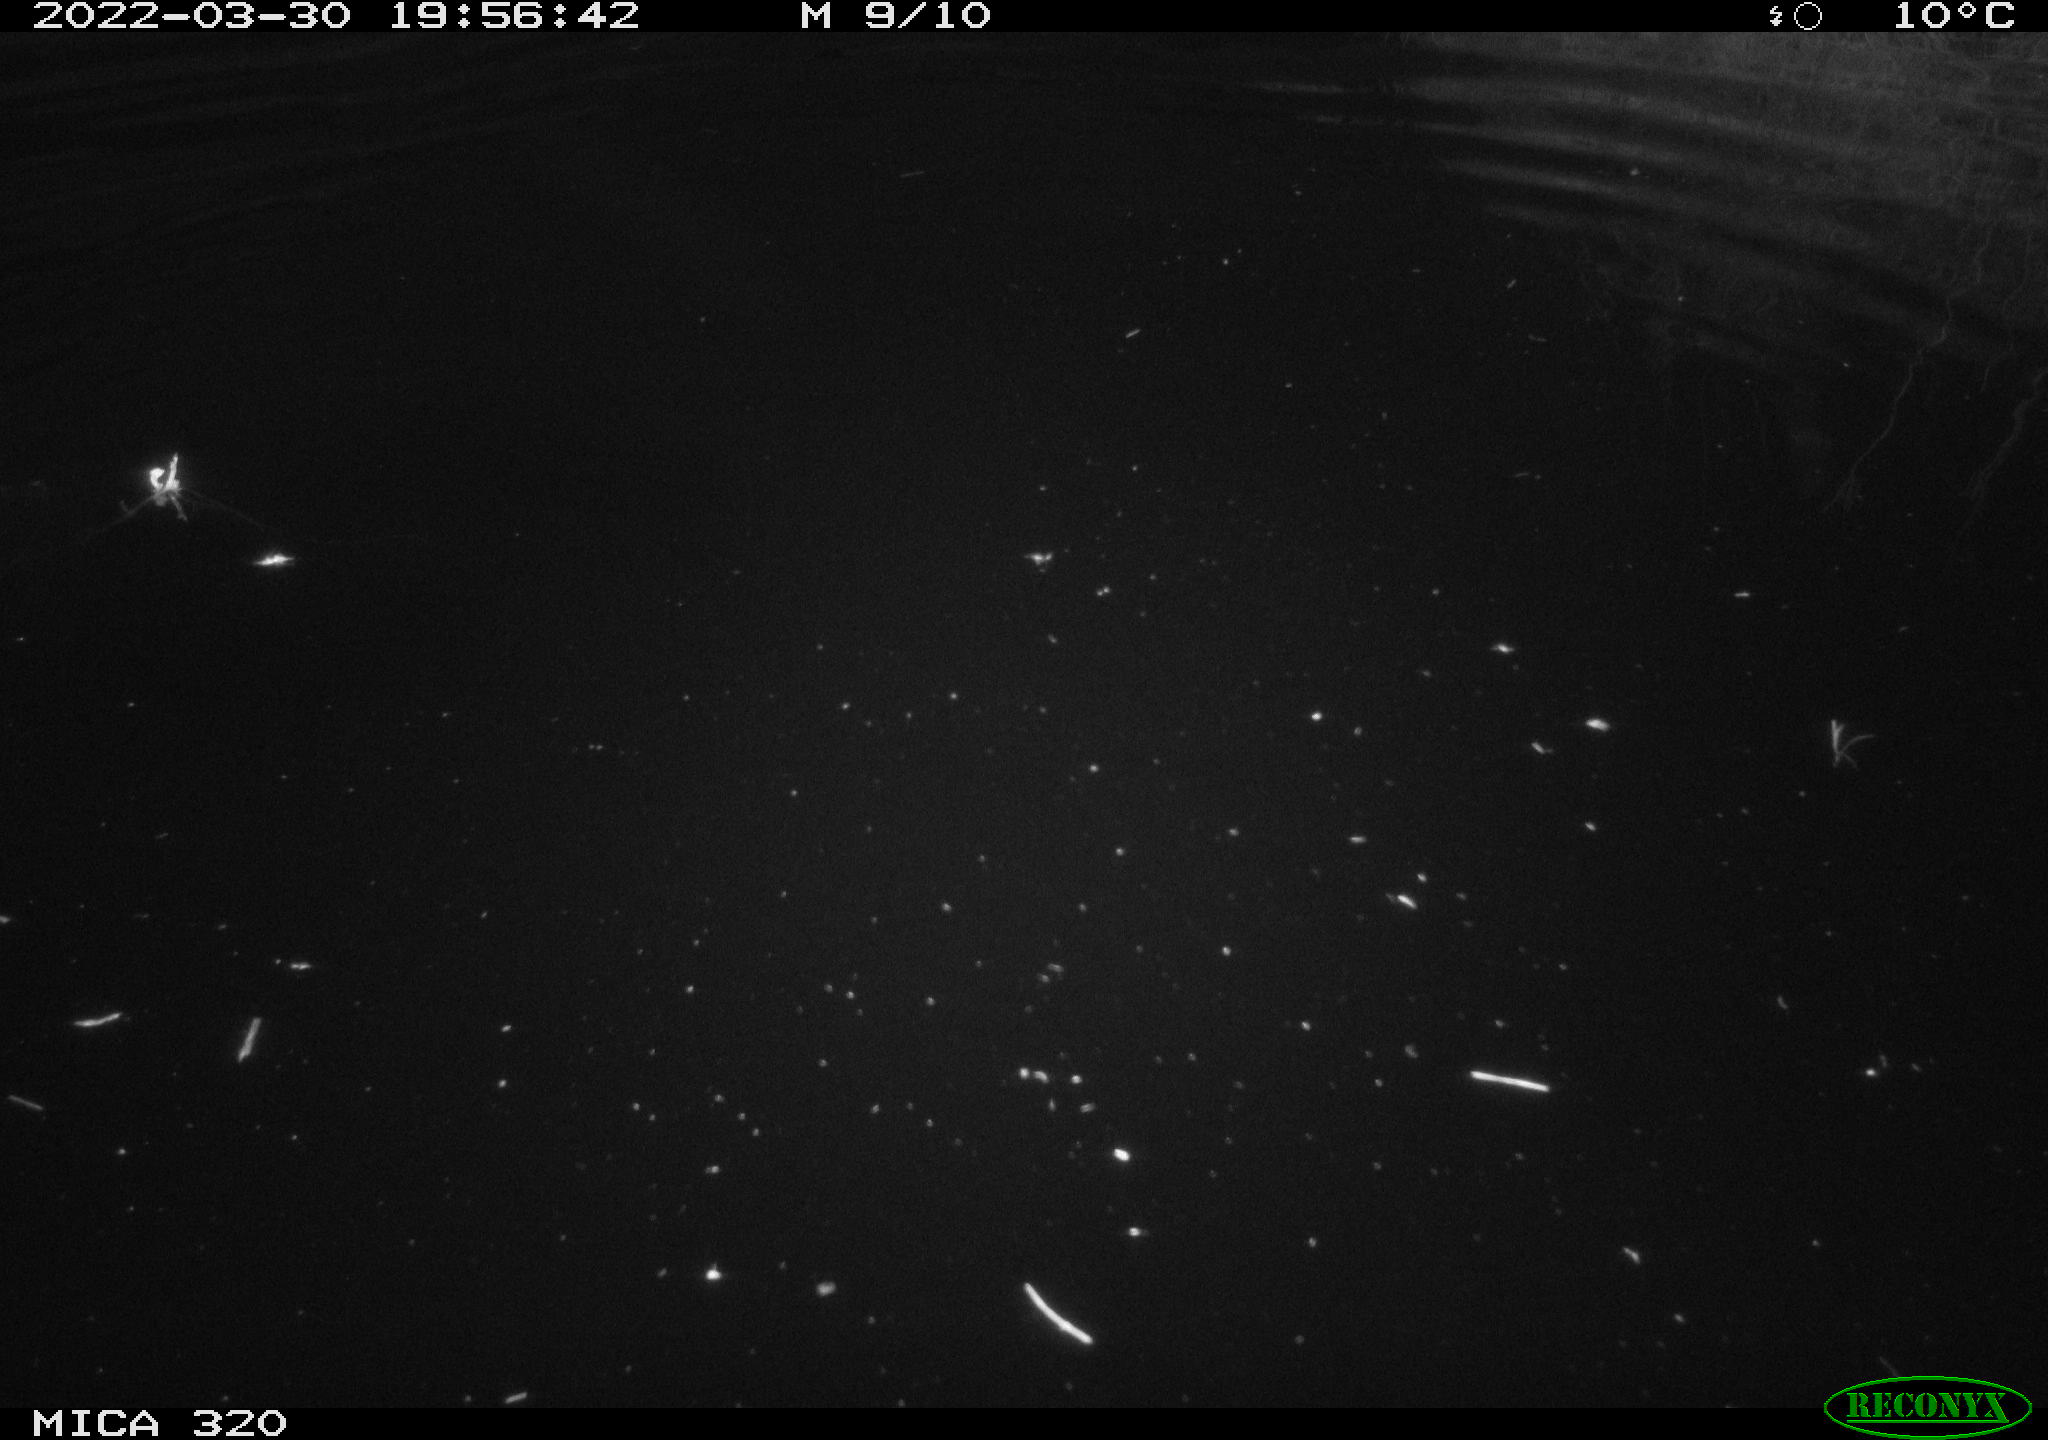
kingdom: Animalia
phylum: Chordata
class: Aves
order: Anseriformes
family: Anatidae
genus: Anas
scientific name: Anas platyrhynchos
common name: Mallard
